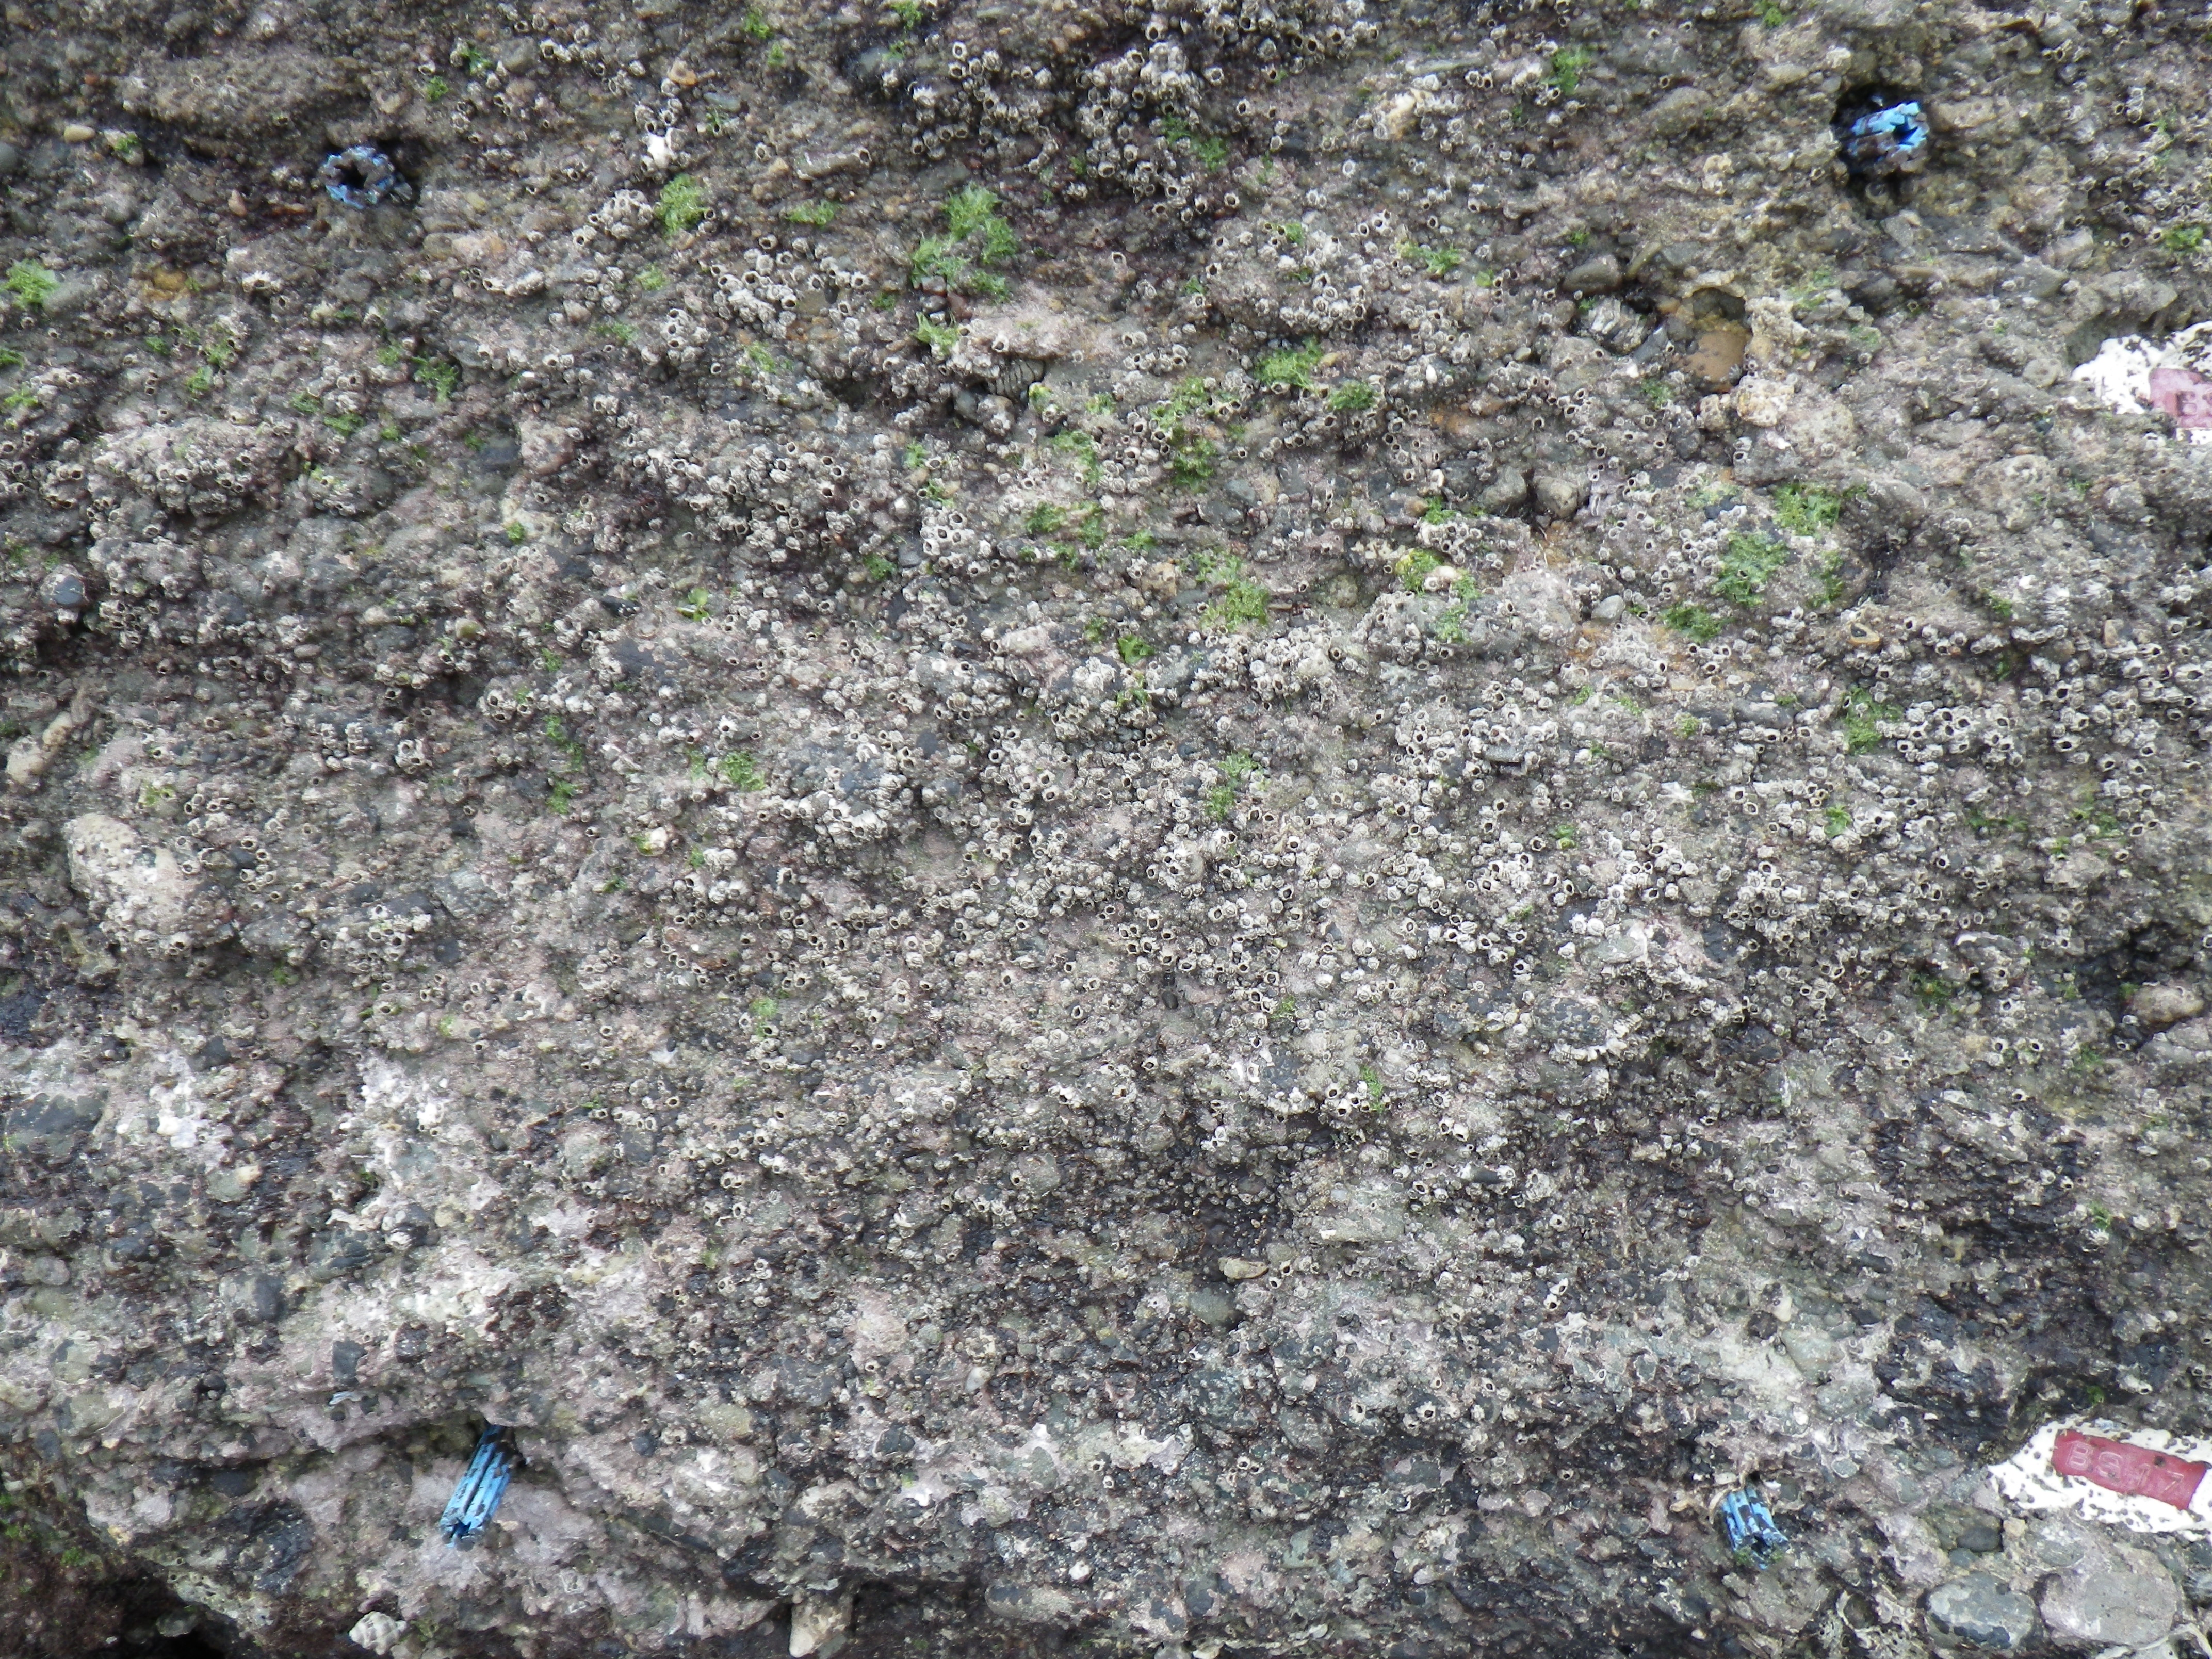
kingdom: Animalia
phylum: Mollusca
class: Bivalvia
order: Mytilida
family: Mytilidae
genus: Brachidontes
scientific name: Brachidontes mutabilis
